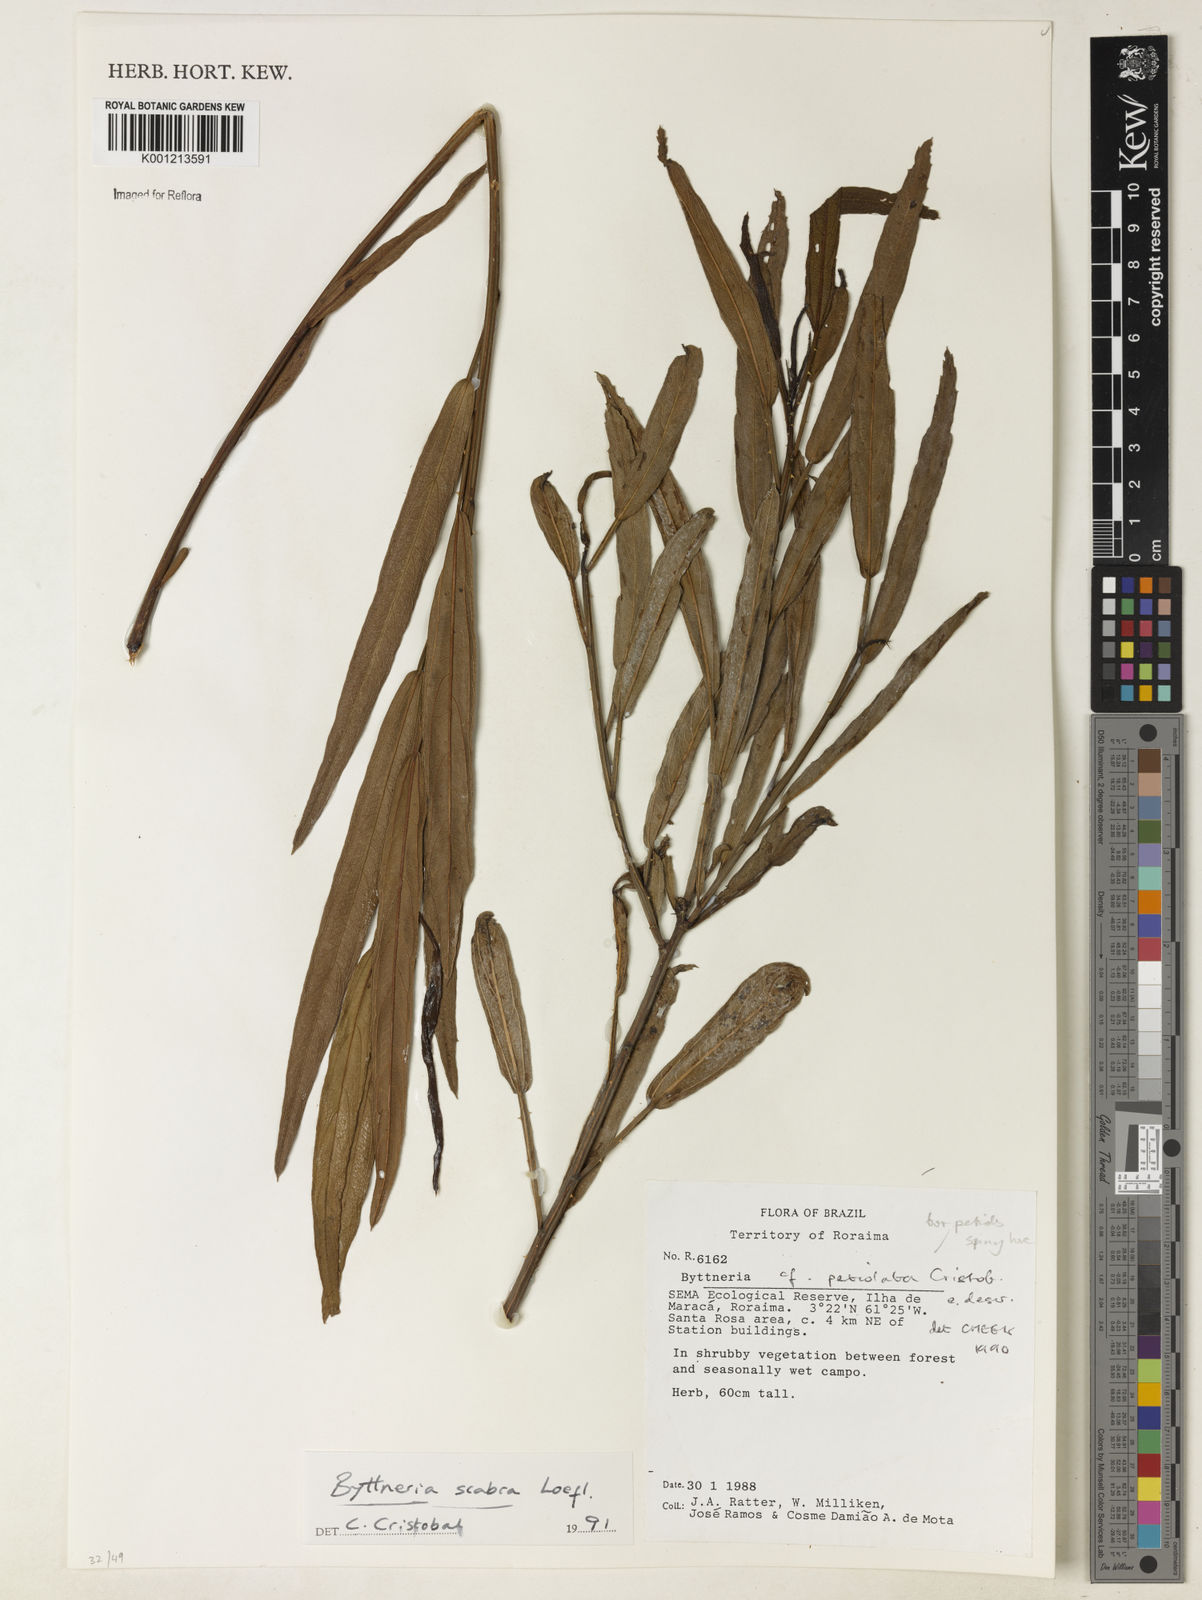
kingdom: Plantae
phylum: Tracheophyta
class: Magnoliopsida
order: Malvales
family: Malvaceae
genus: Byttneria
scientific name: Byttneria
